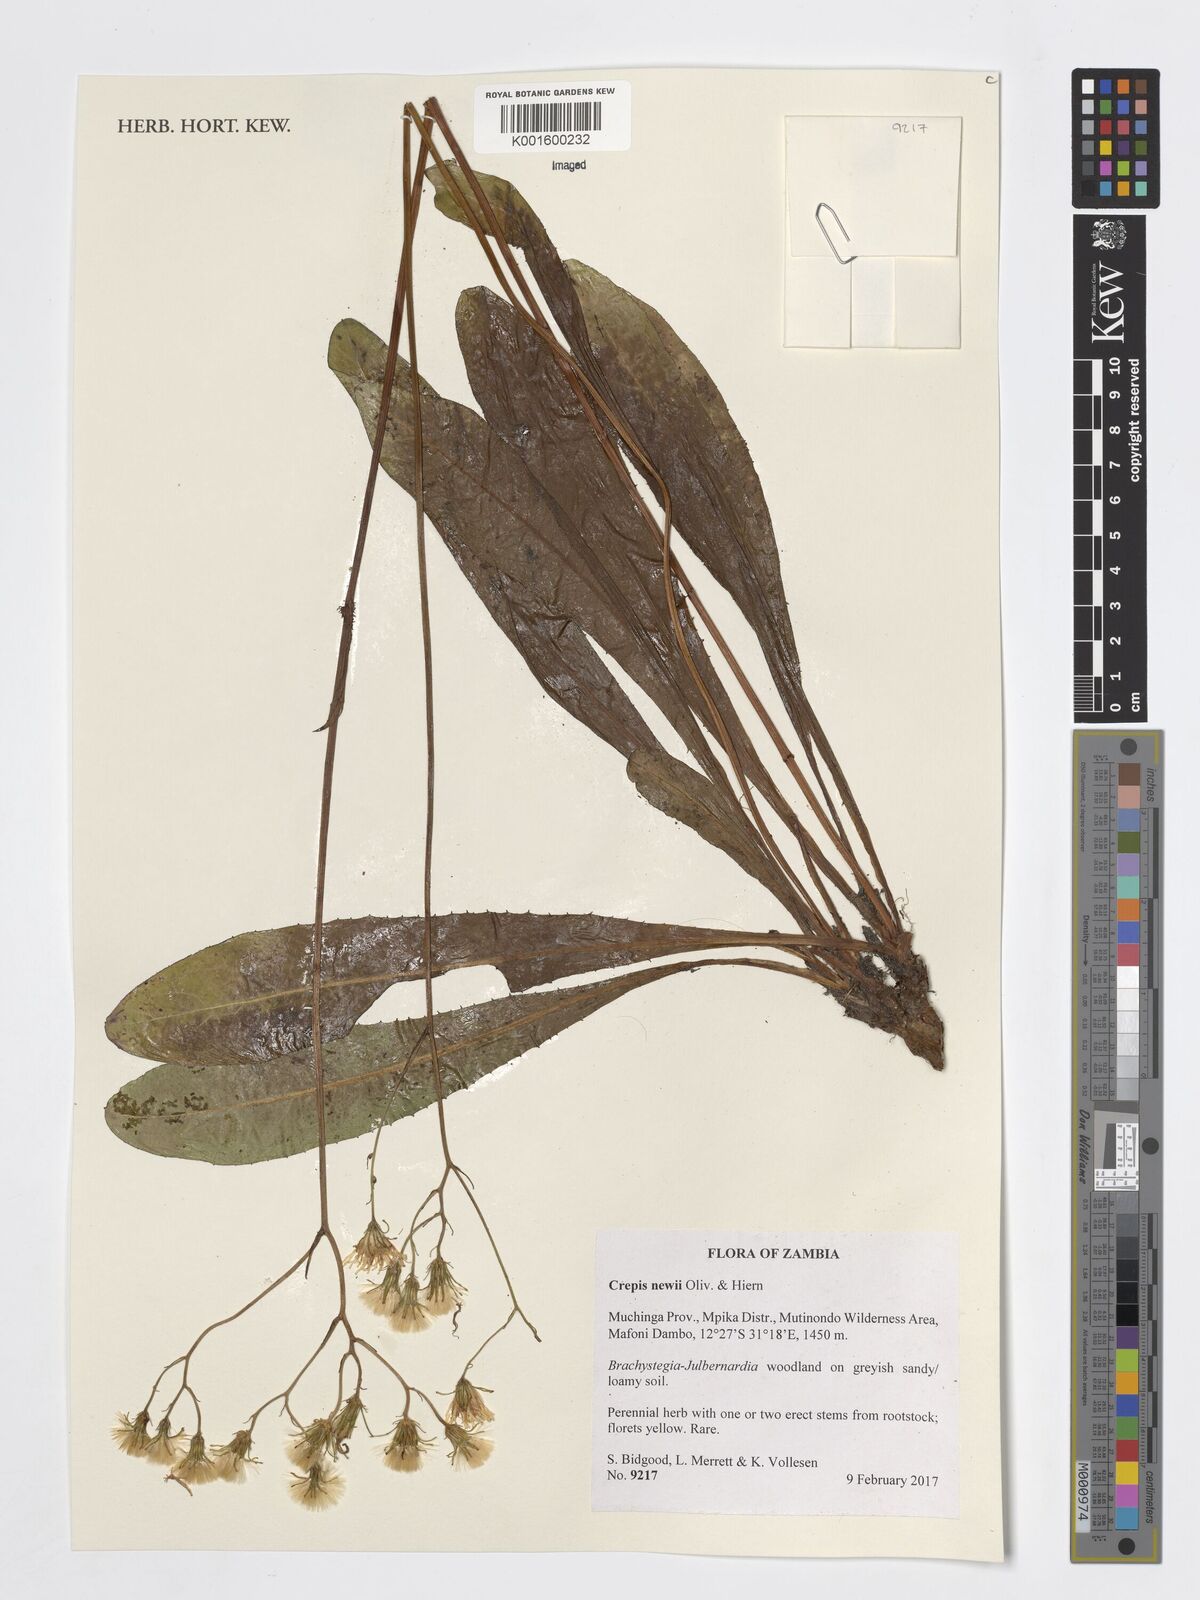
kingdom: Plantae
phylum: Tracheophyta
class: Magnoliopsida
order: Asterales
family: Asteraceae
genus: Crepis
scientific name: Crepis newii
